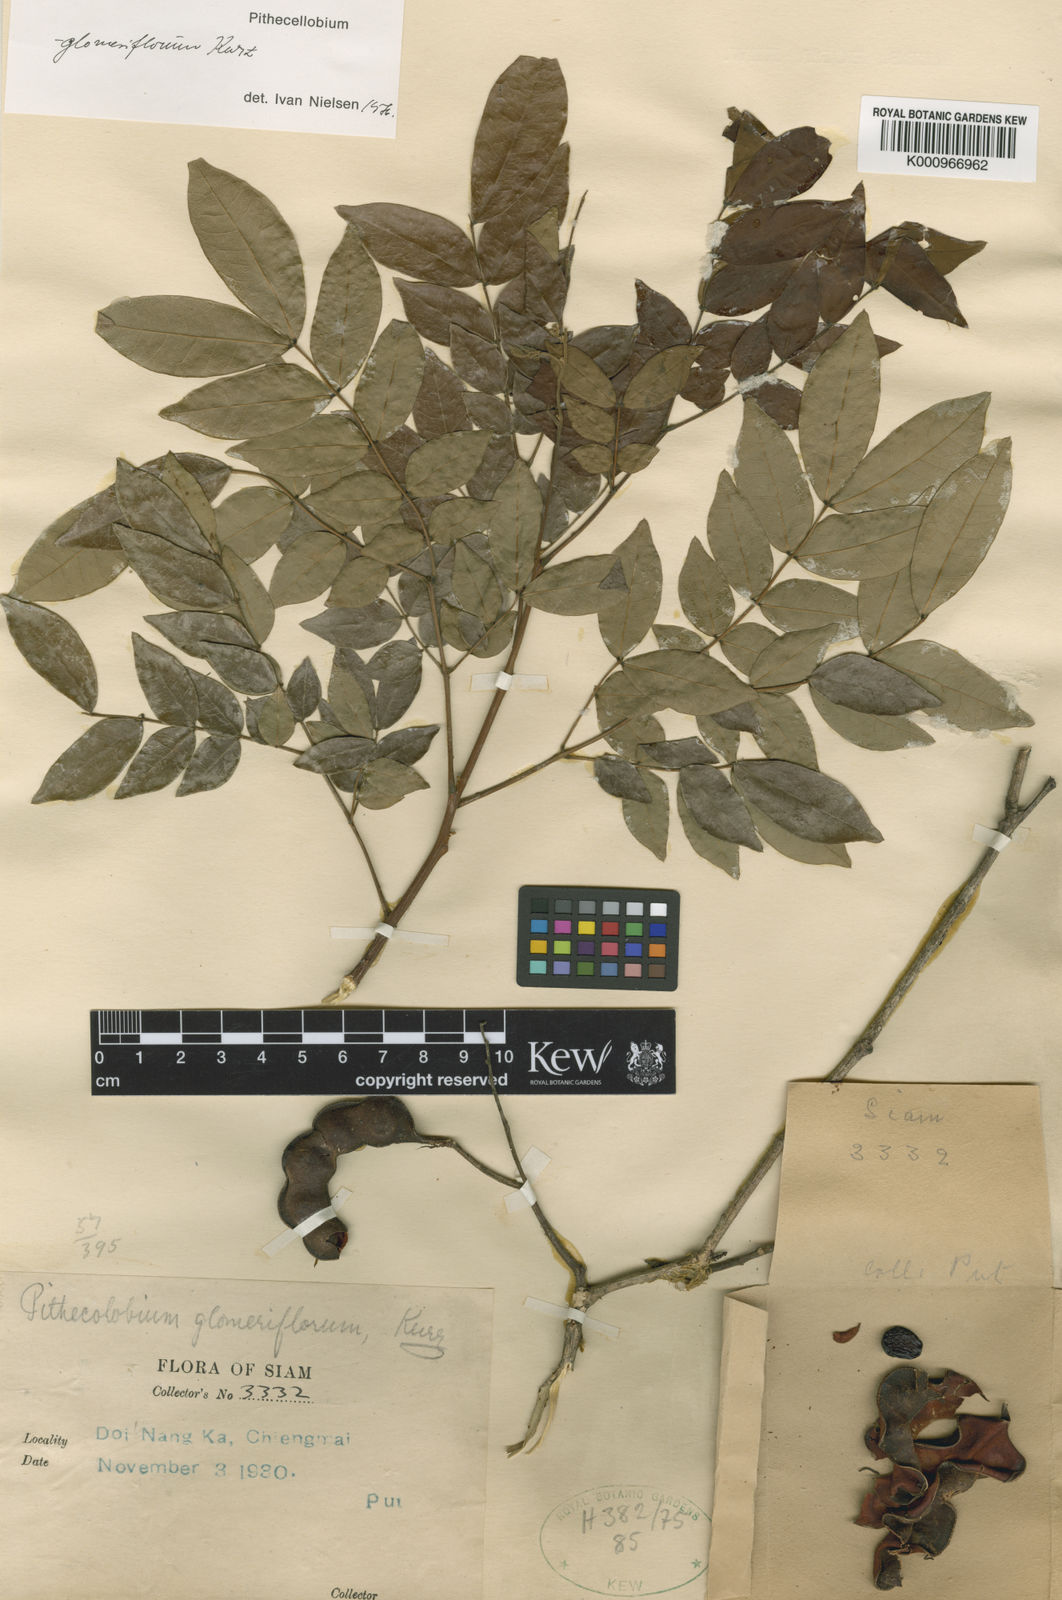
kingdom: Plantae
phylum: Tracheophyta
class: Magnoliopsida
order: Fabales
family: Fabaceae
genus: Archidendron
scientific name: Archidendron glomeriflorum
